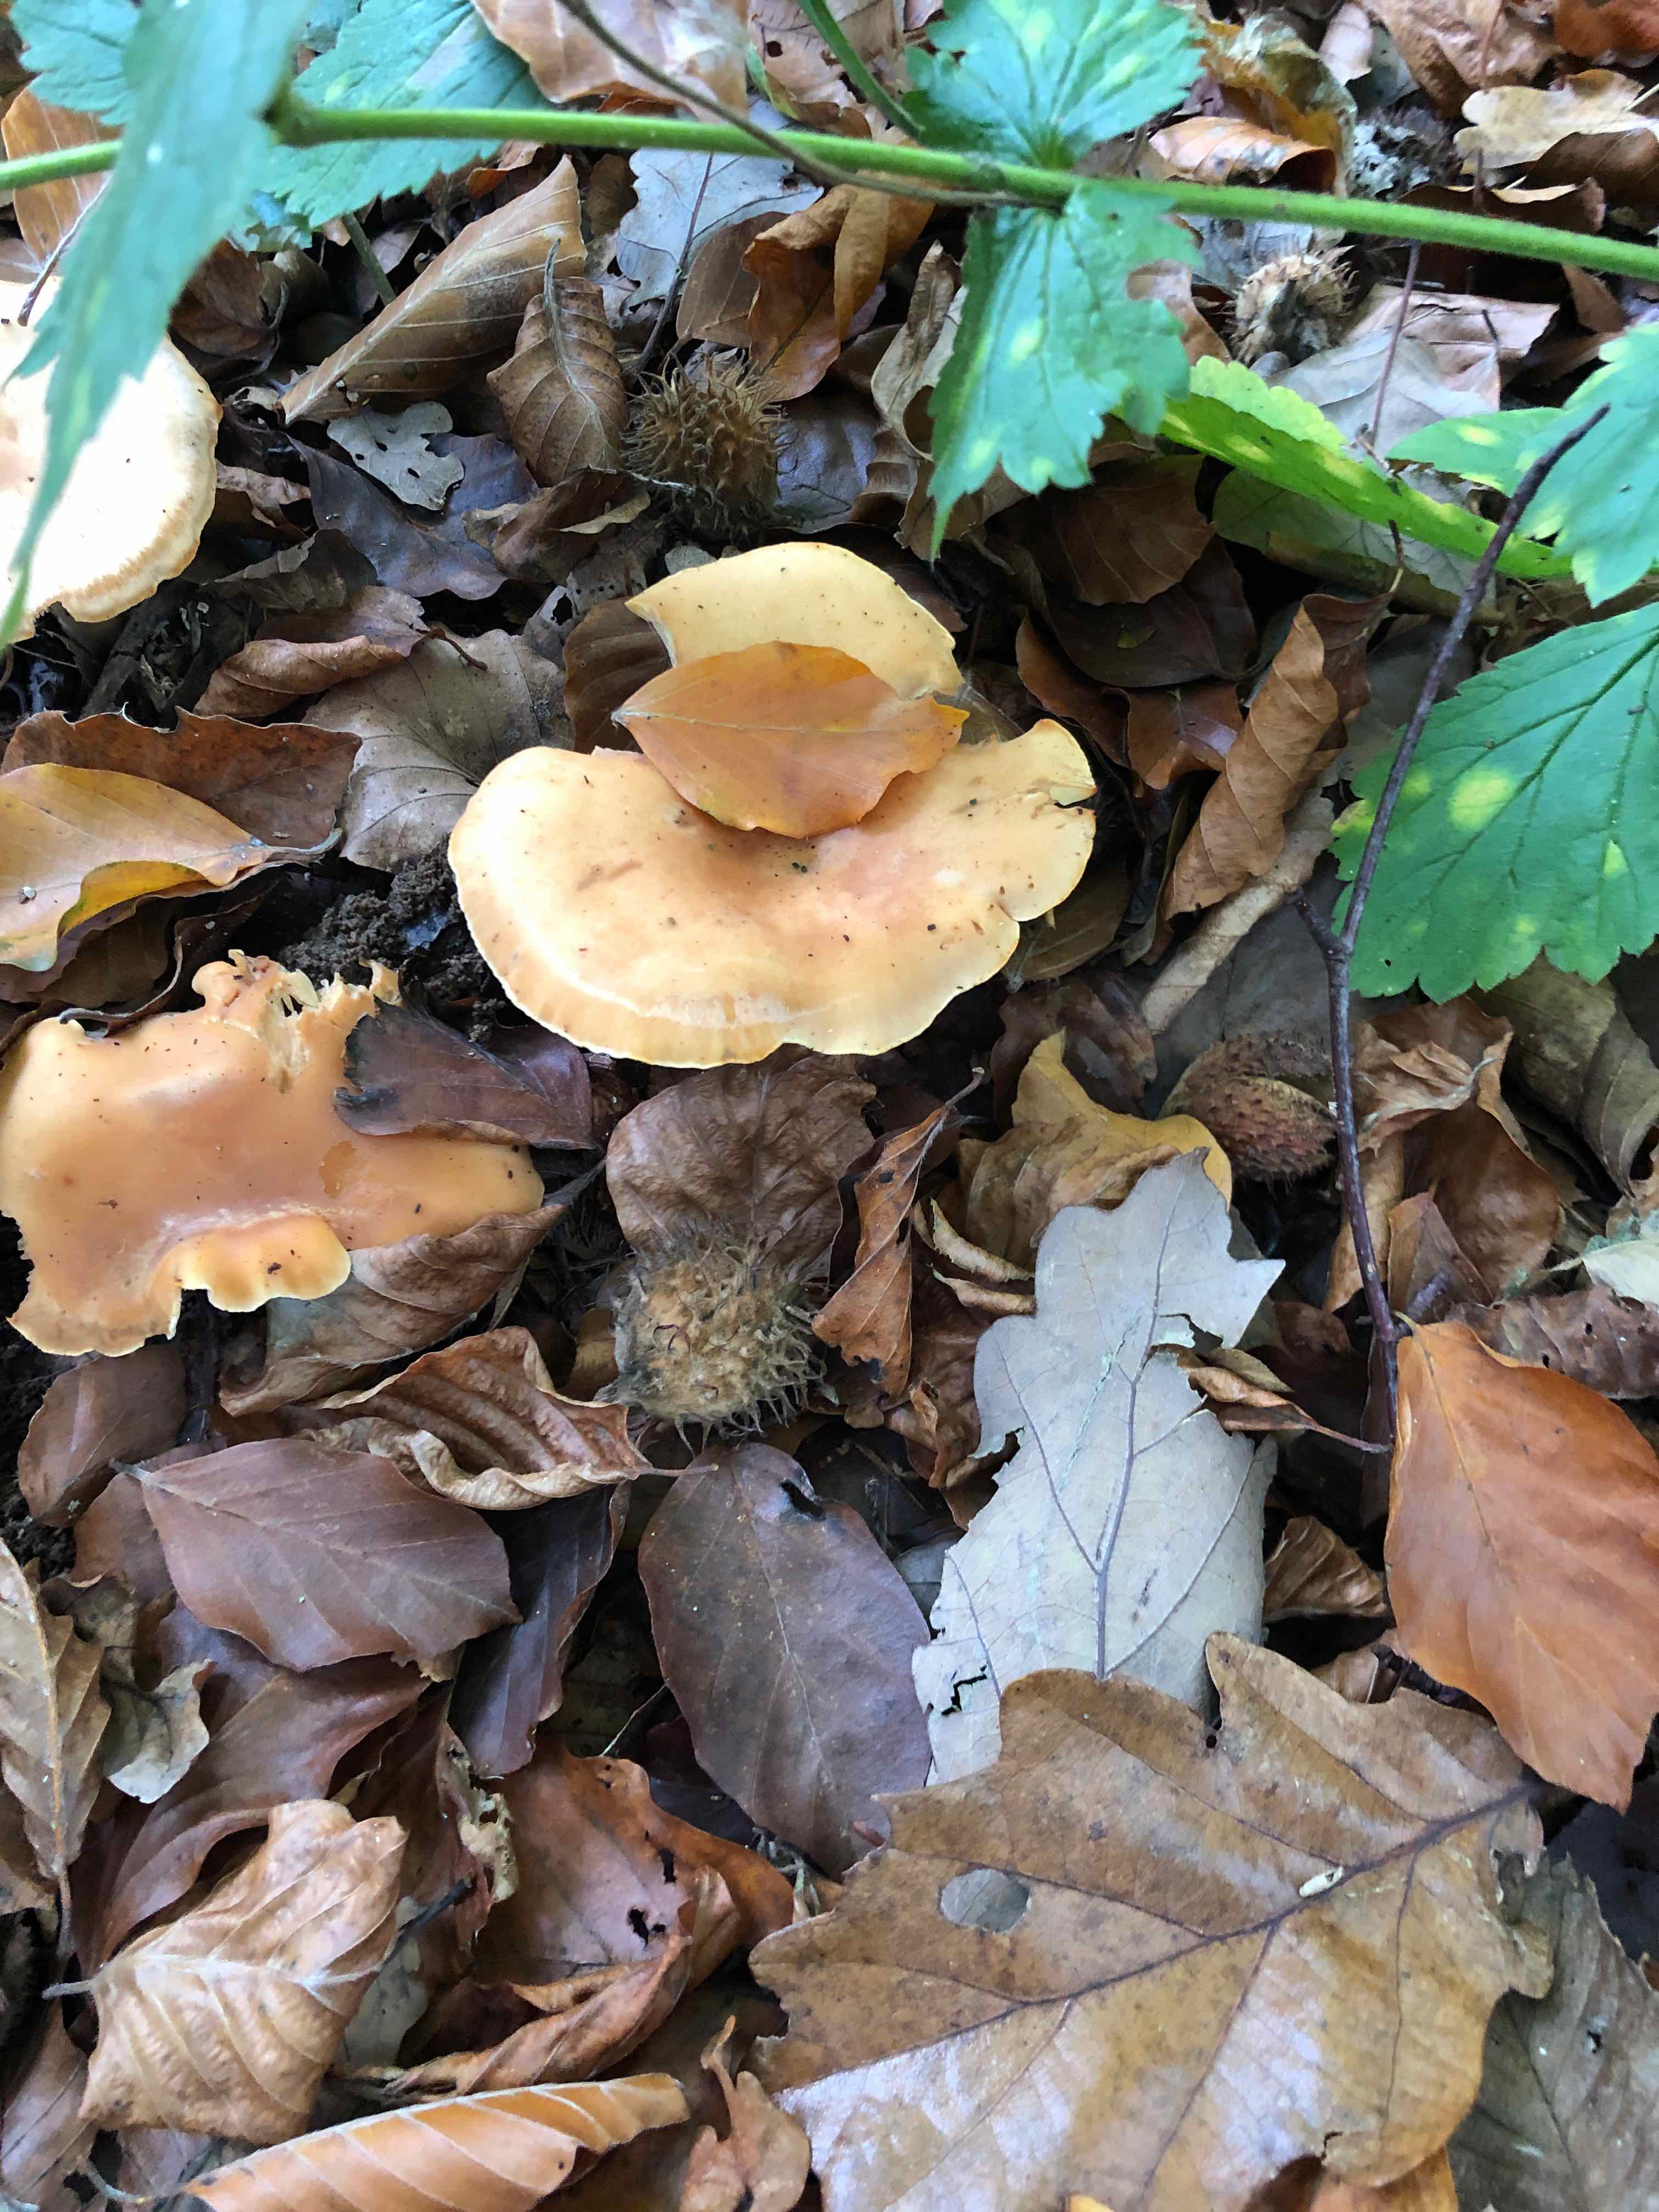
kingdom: Fungi
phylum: Basidiomycota
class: Agaricomycetes
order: Agaricales
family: Tricholomataceae
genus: Paralepista
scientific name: Paralepista flaccida
